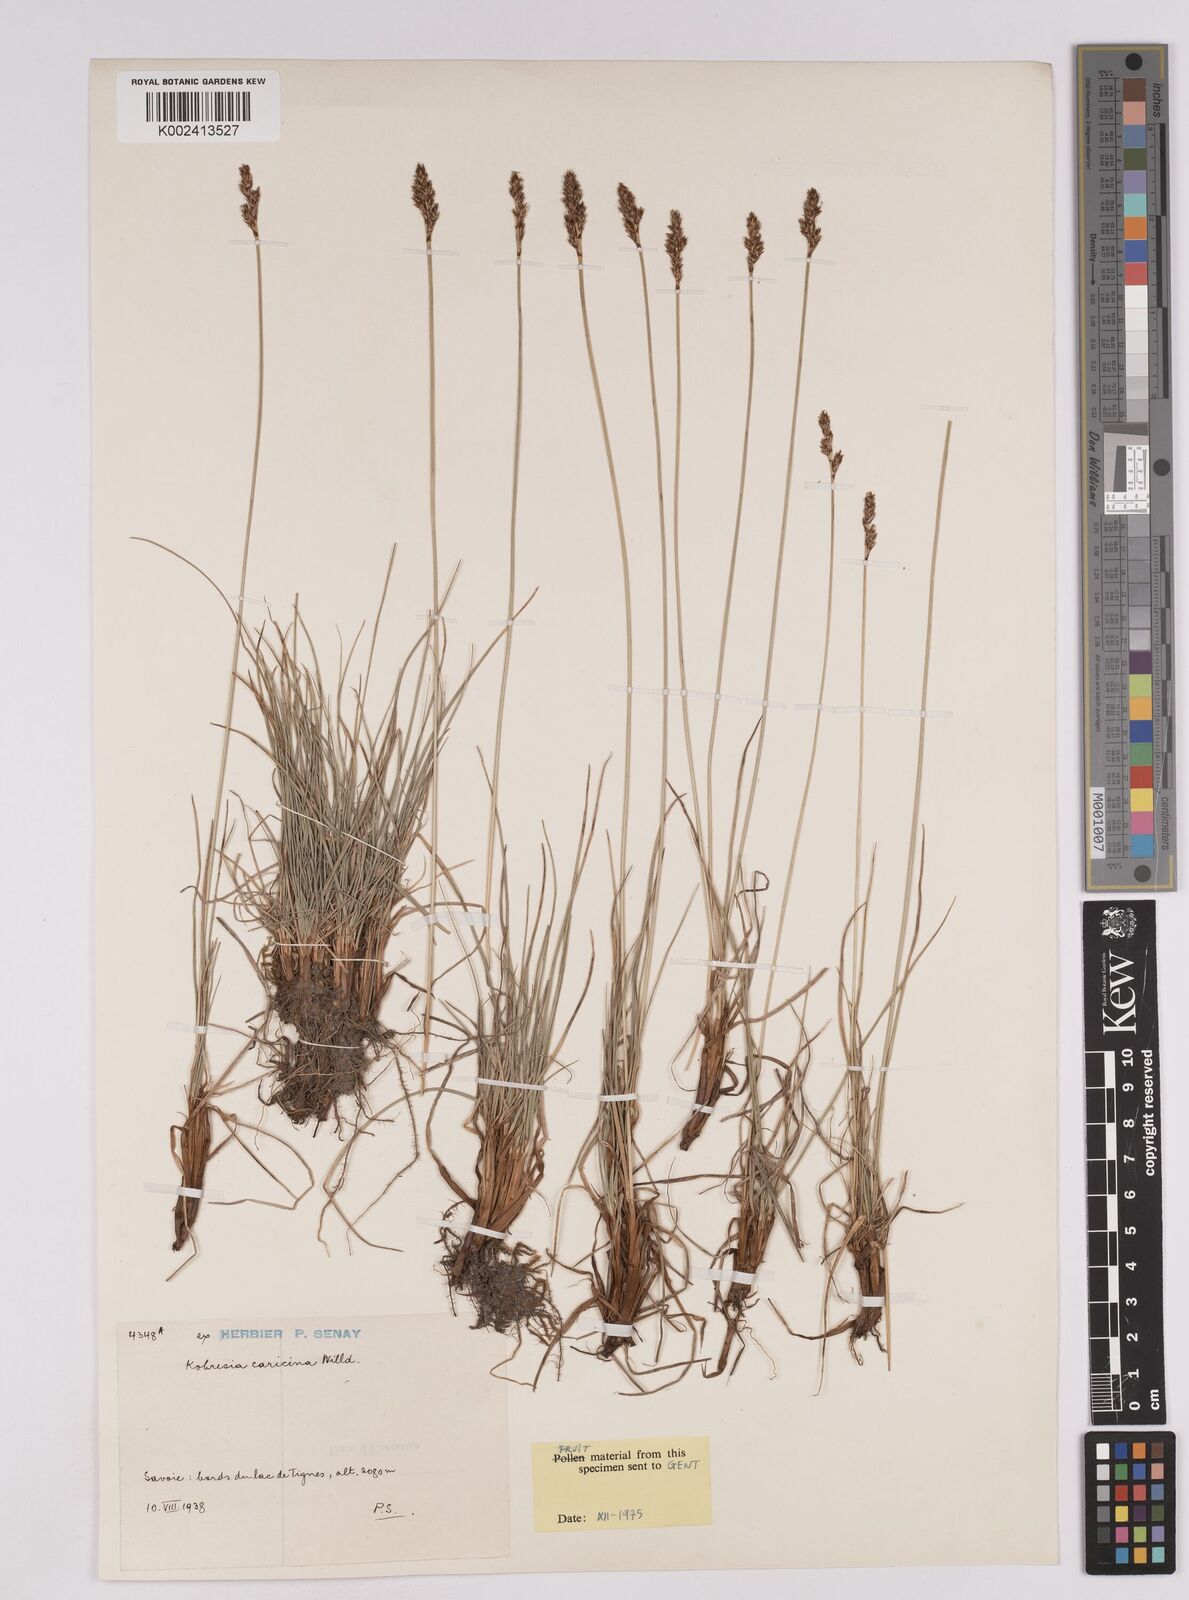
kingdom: Plantae
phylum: Tracheophyta
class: Liliopsida
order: Poales
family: Cyperaceae
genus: Carex
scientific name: Carex simpliciuscula
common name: Simple bog sedge
